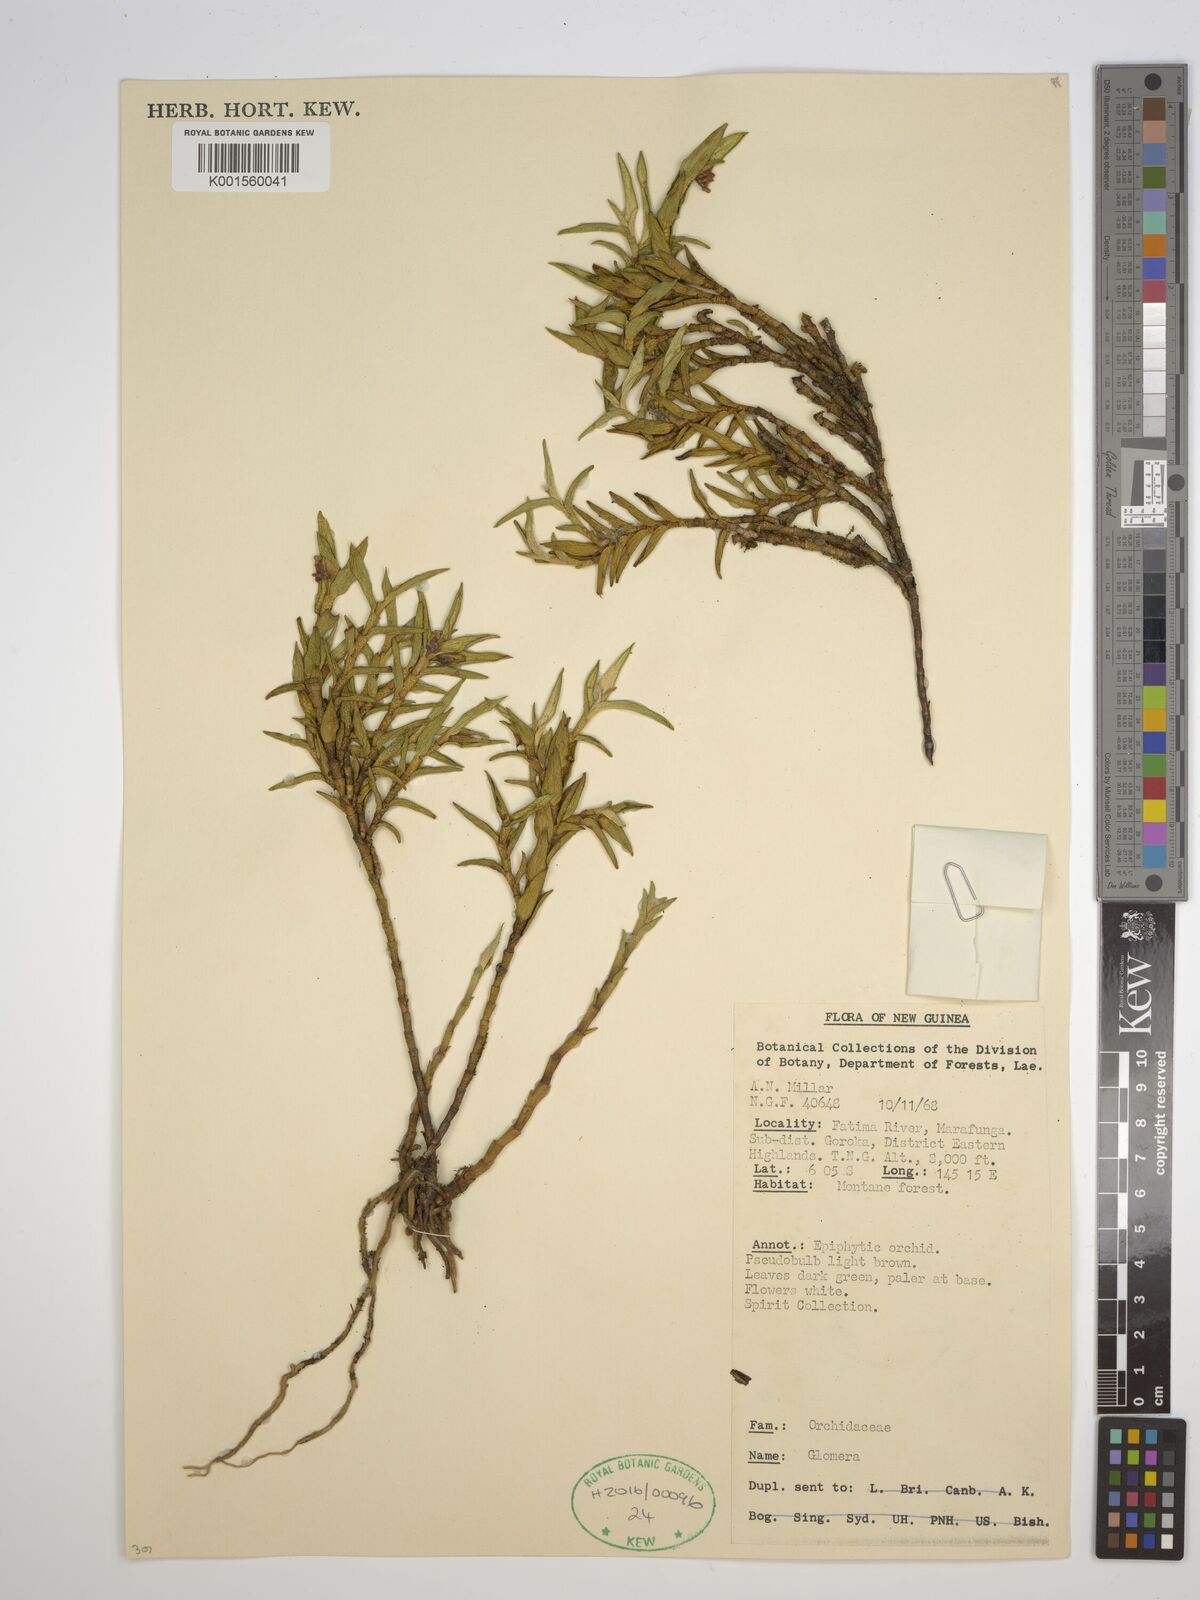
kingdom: Plantae
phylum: Tracheophyta
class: Liliopsida
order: Asparagales
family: Orchidaceae
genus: Glomera
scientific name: Glomera
